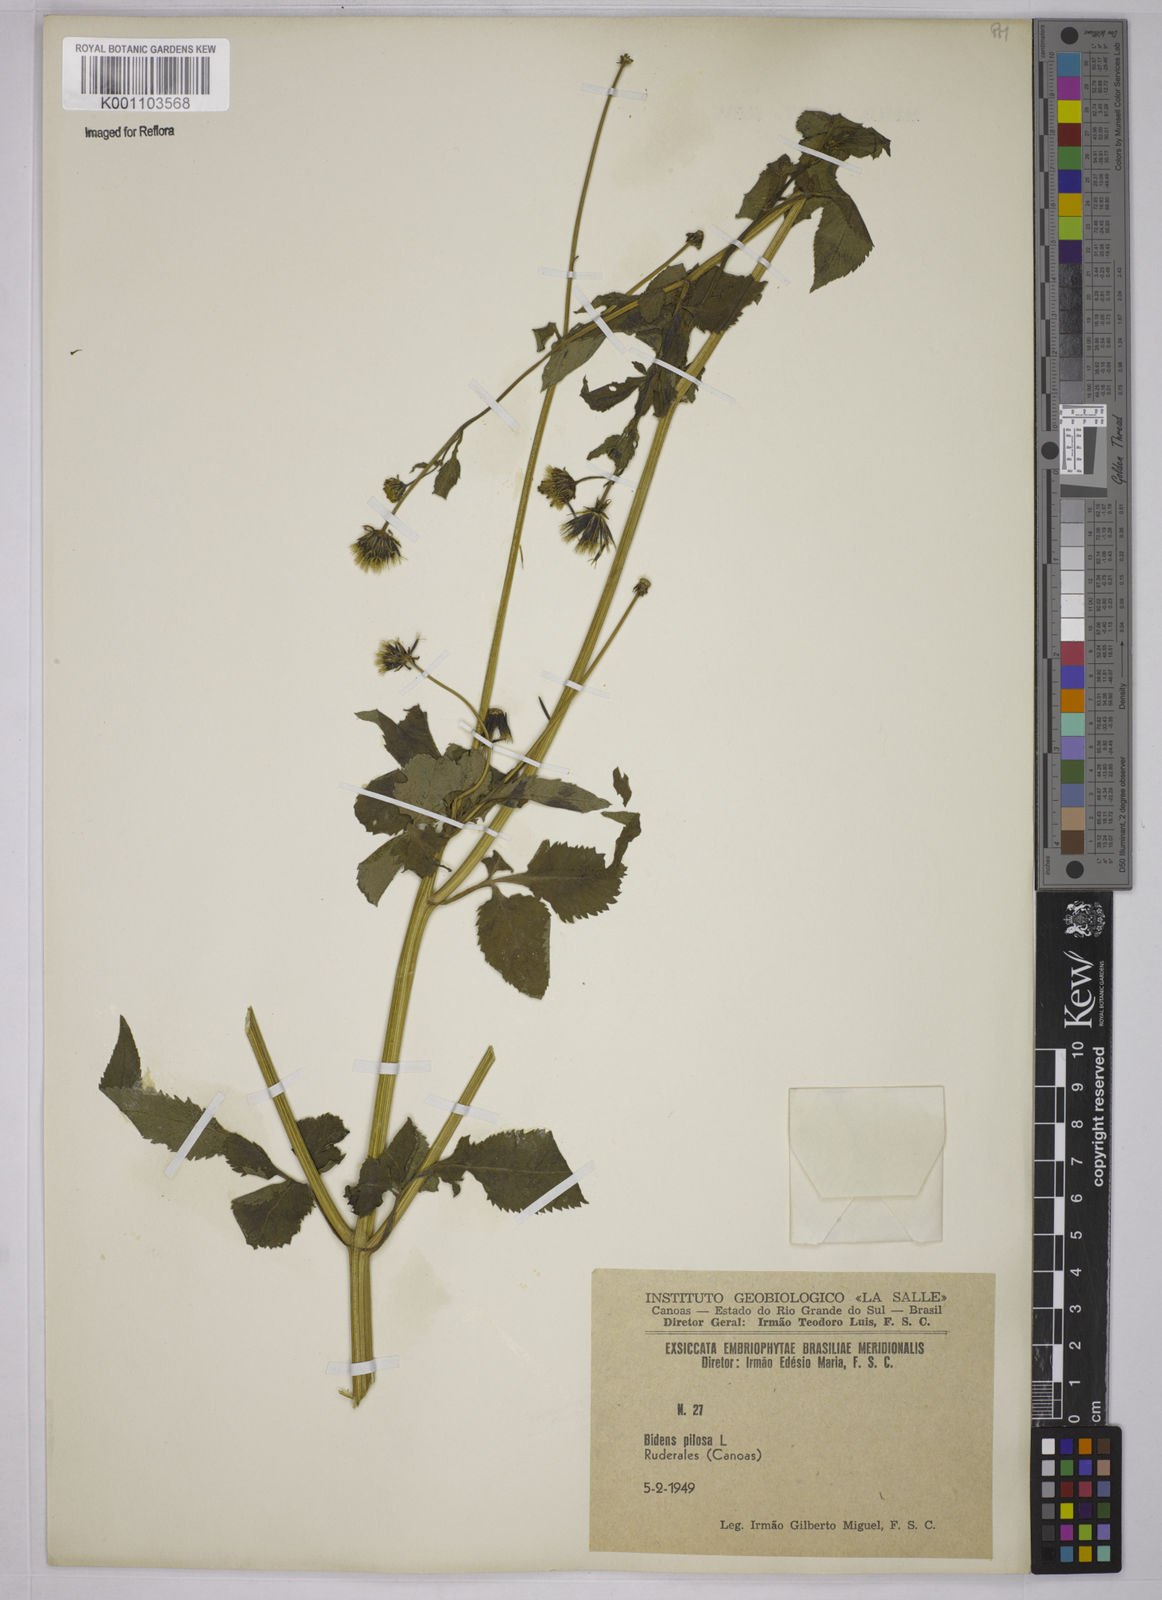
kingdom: Plantae
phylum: Tracheophyta
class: Magnoliopsida
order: Asterales
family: Asteraceae
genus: Bidens
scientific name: Bidens pilosa
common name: Black-jack
